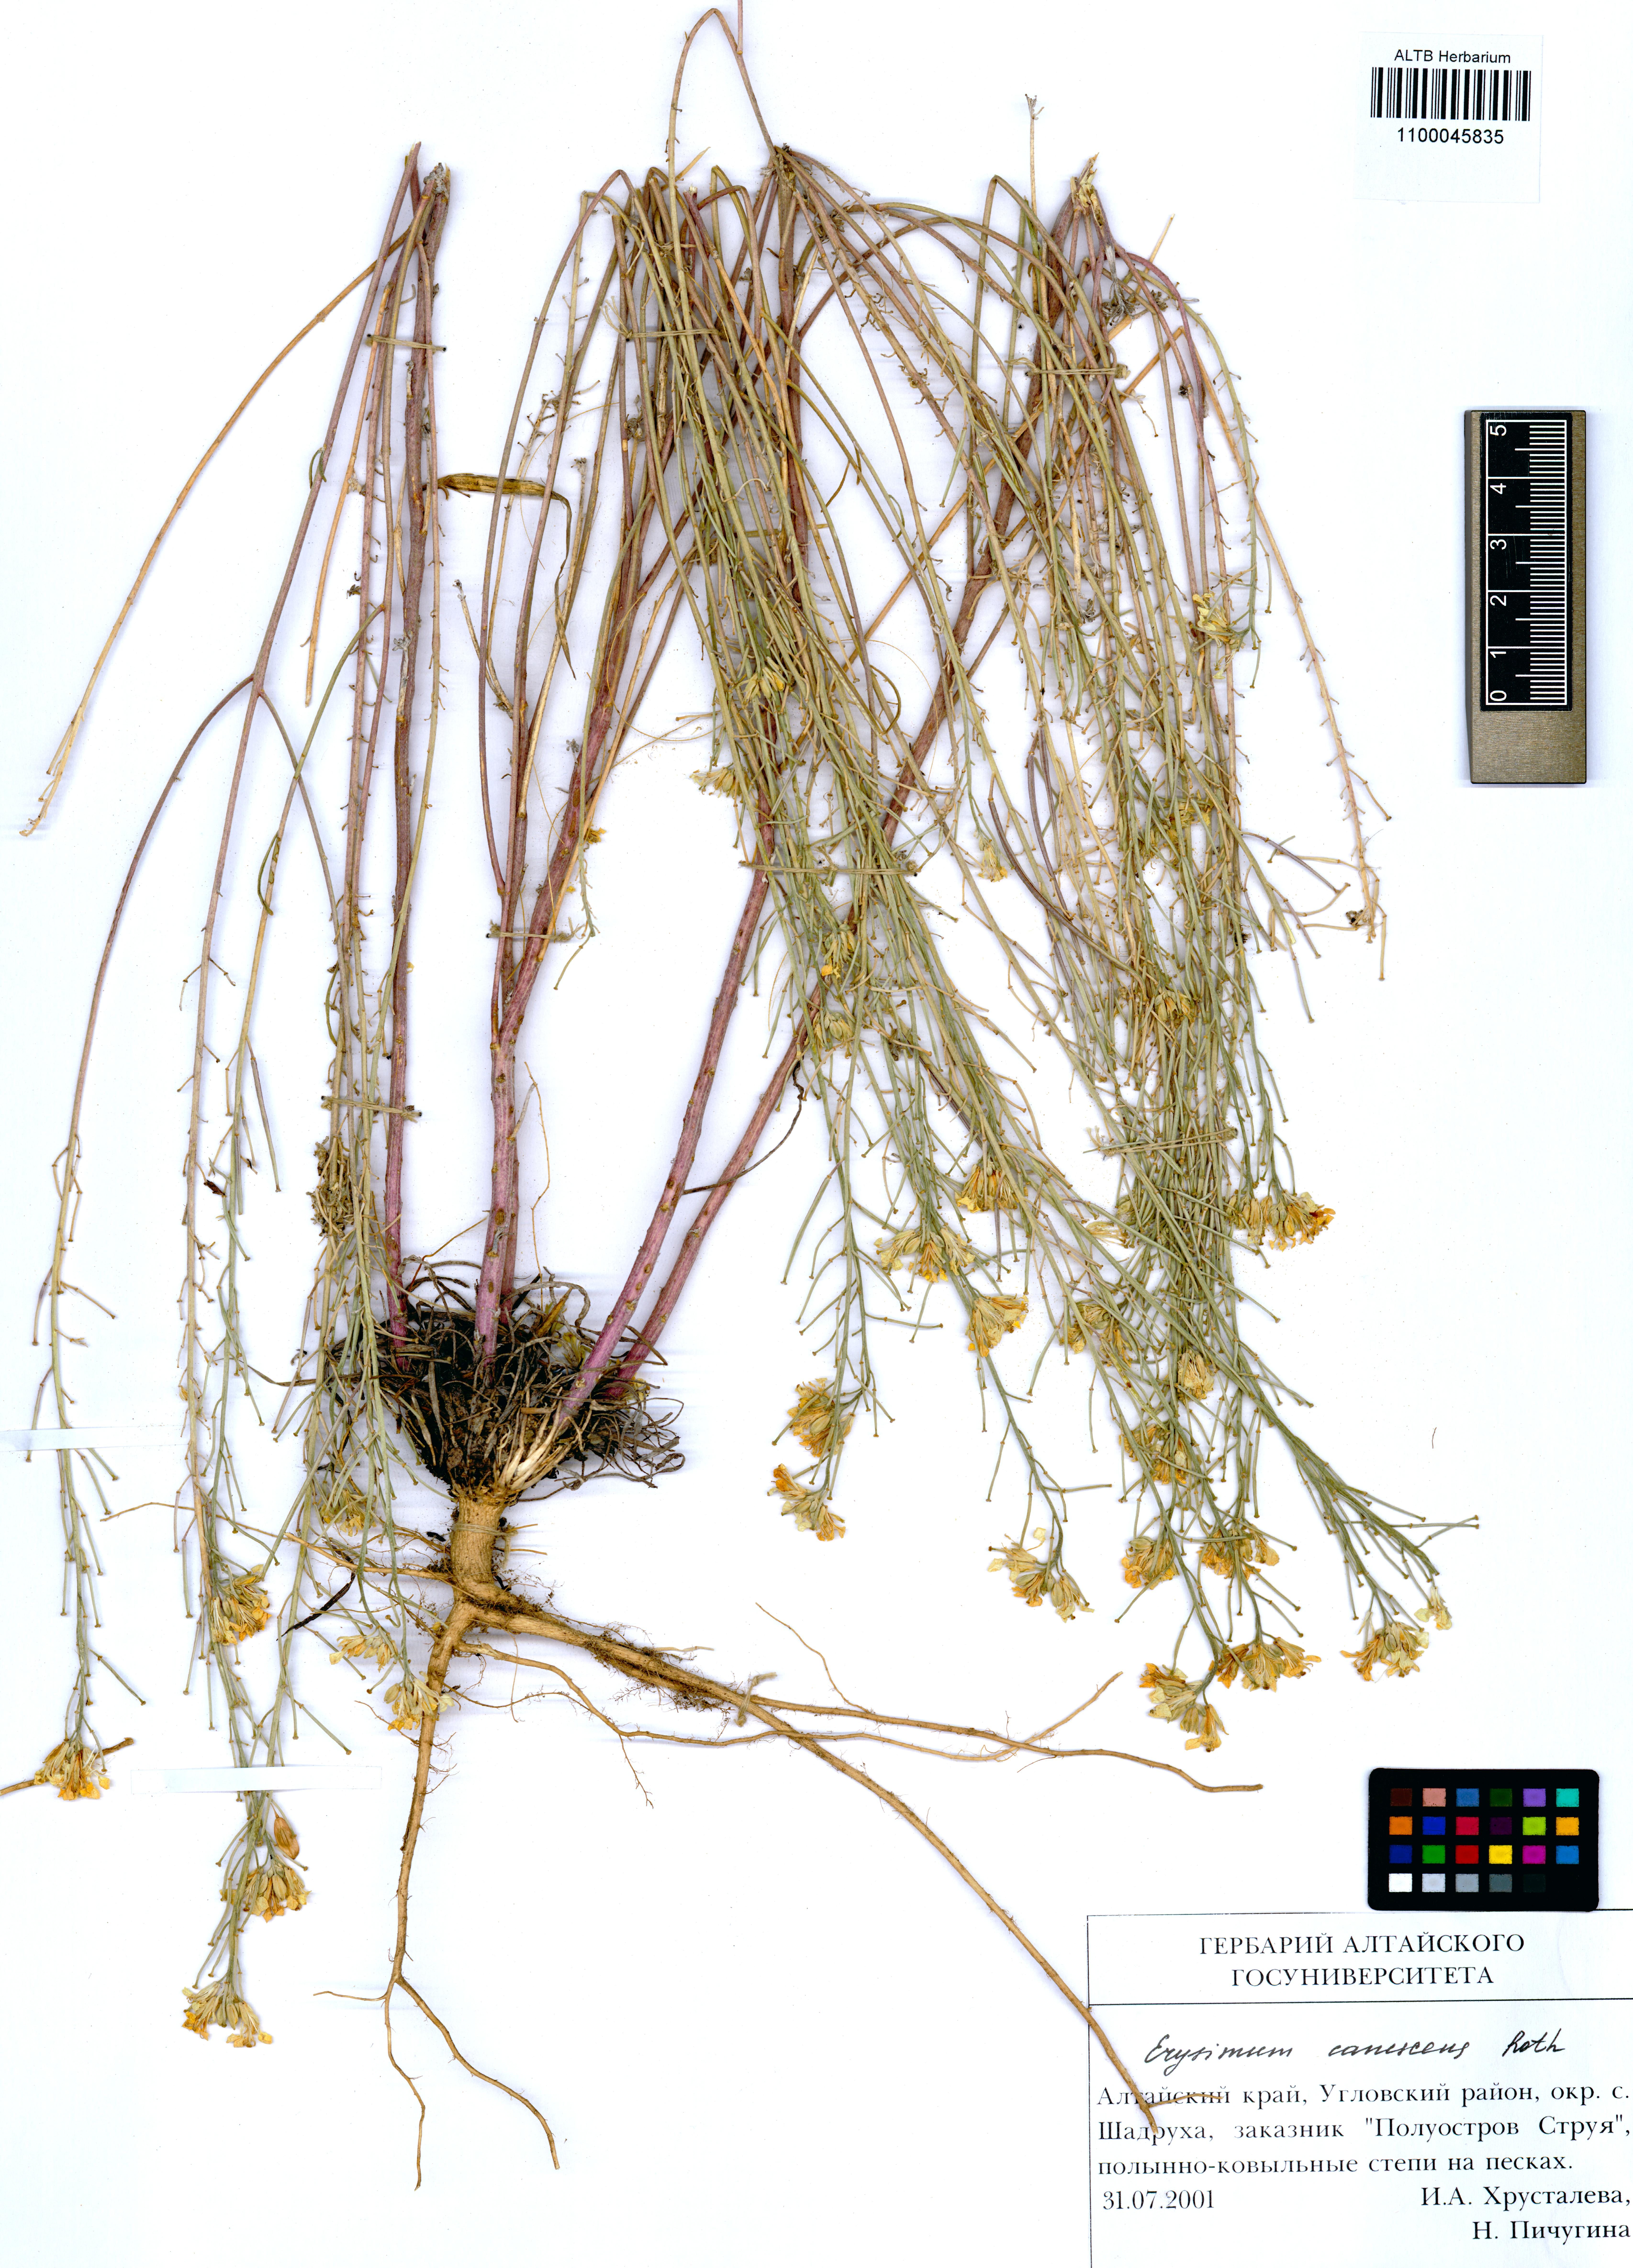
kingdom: Plantae
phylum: Tracheophyta
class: Magnoliopsida
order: Brassicales
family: Brassicaceae
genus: Erysimum
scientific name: Erysimum canescens
